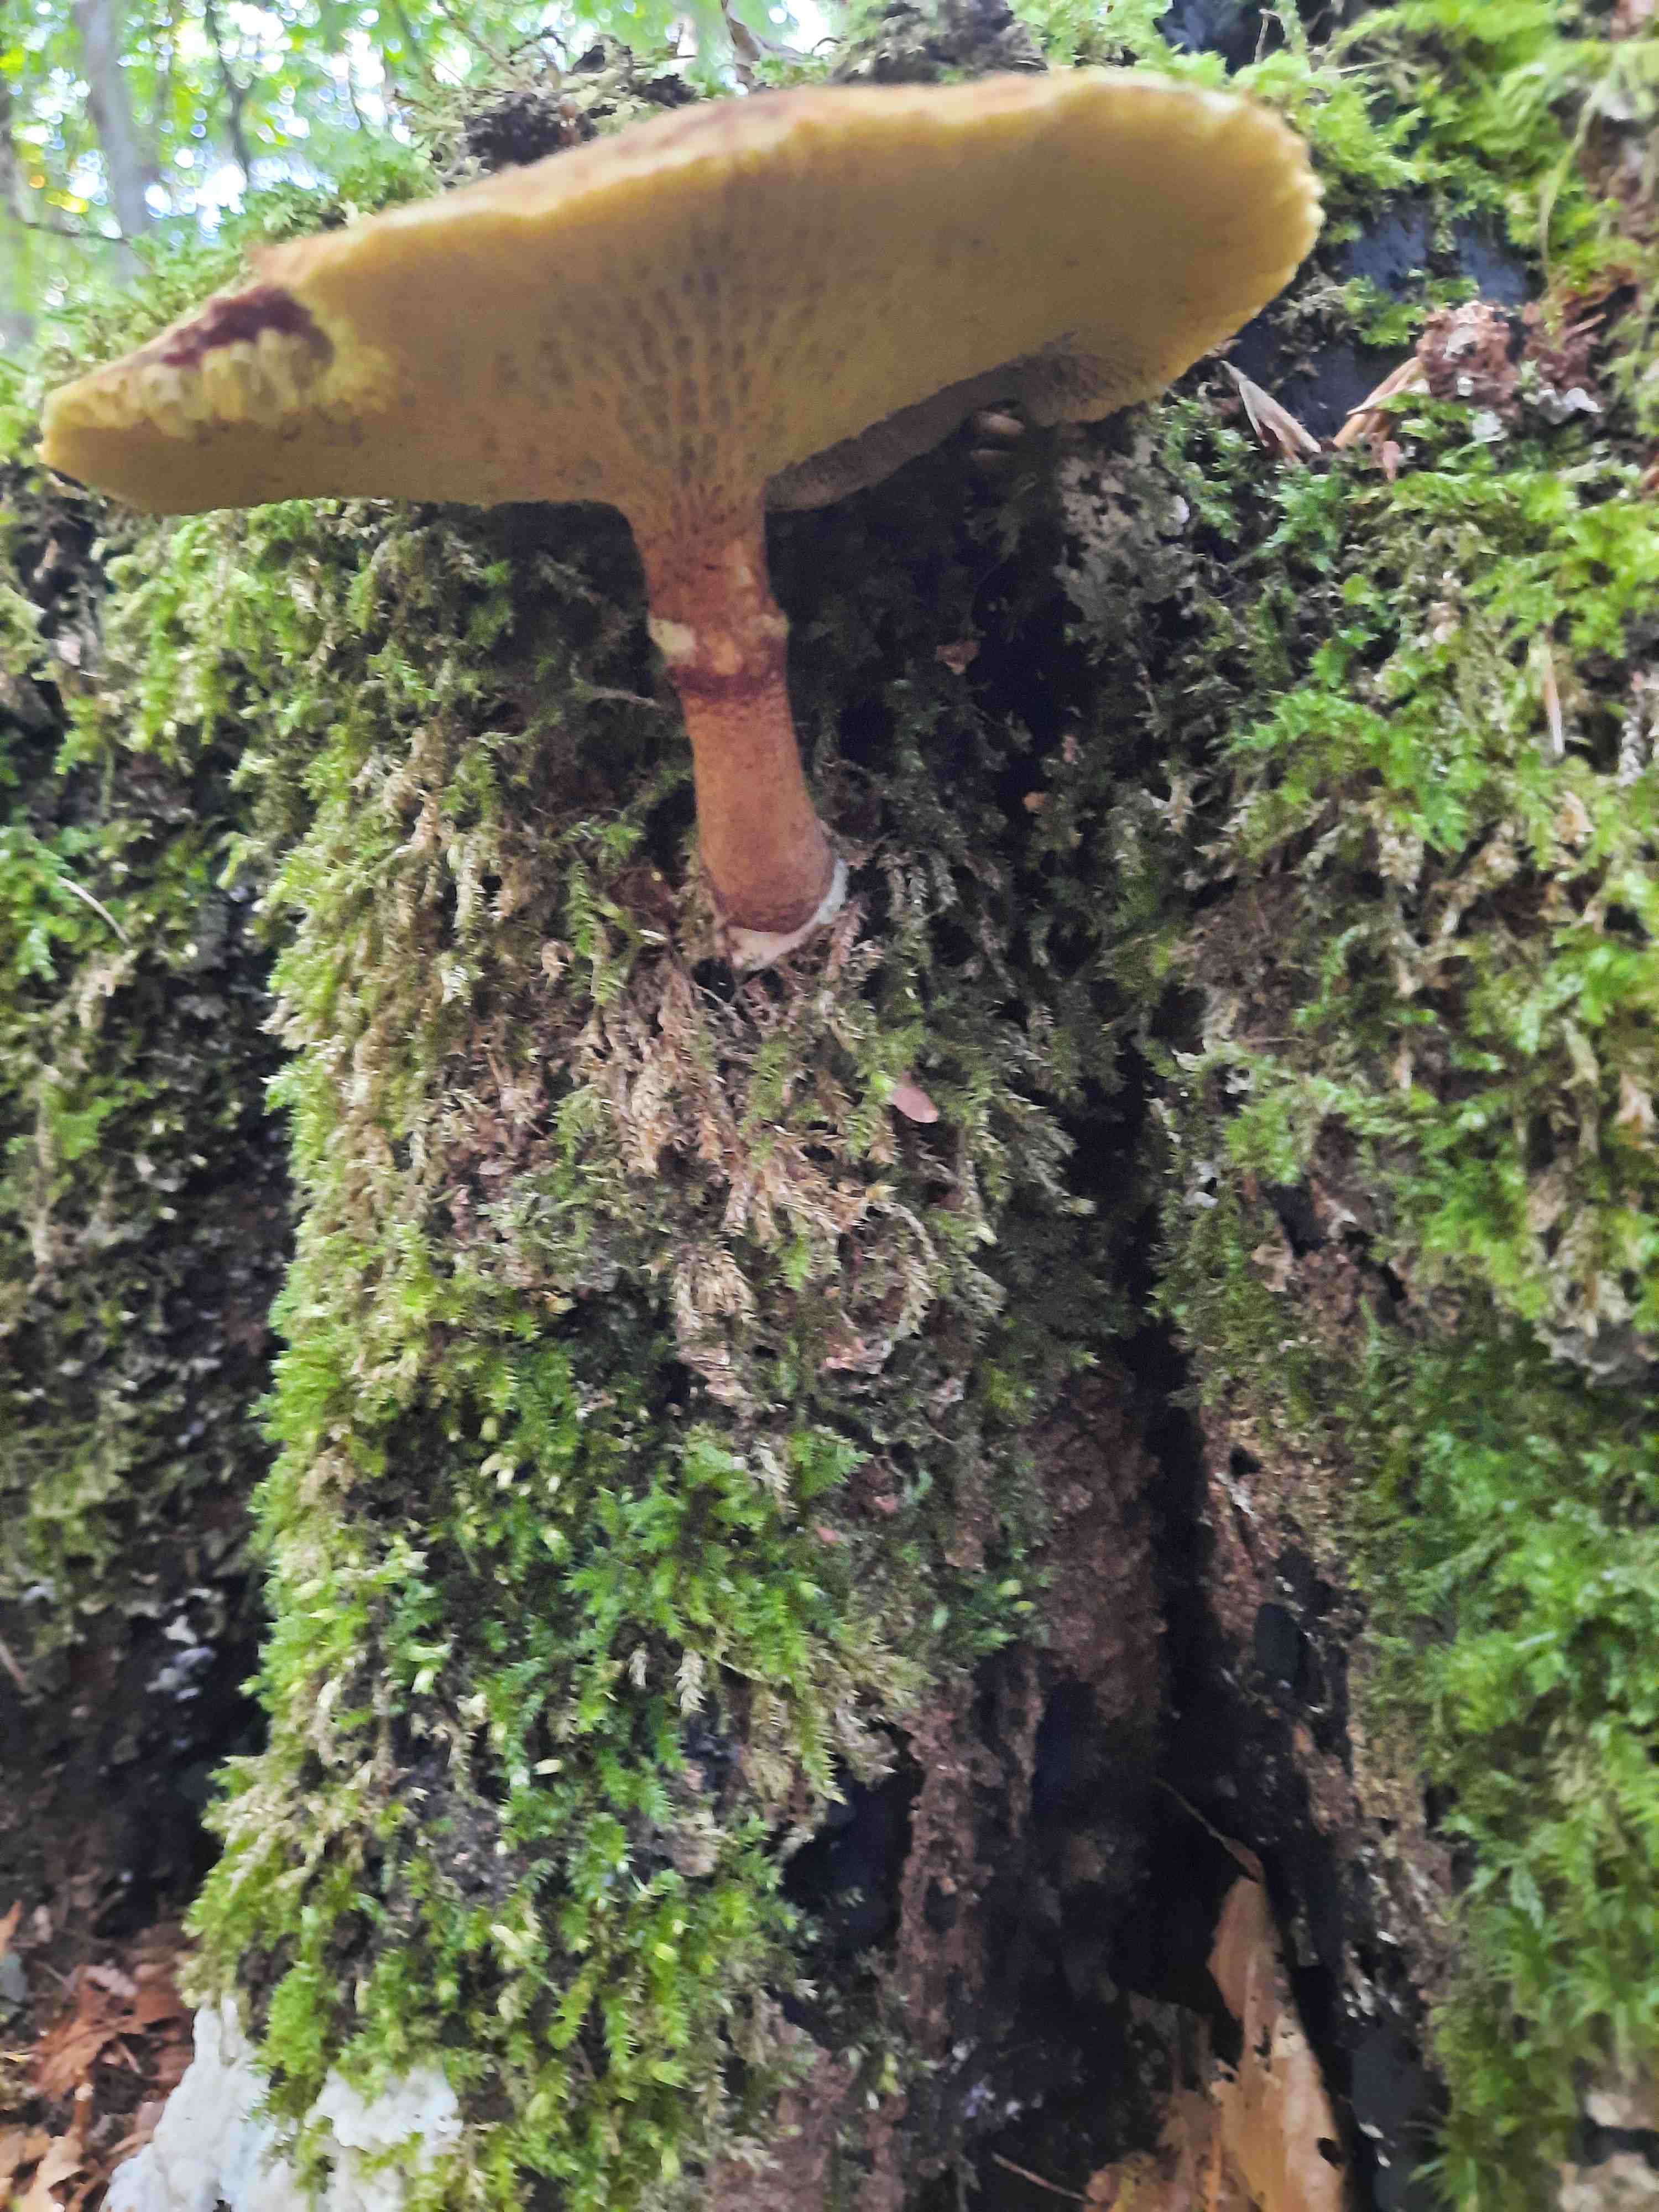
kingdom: Fungi
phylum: Basidiomycota
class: Agaricomycetes
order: Boletales
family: Suillaceae
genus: Suillus
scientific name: Suillus cavipes
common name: hulstokket slimrørhat
